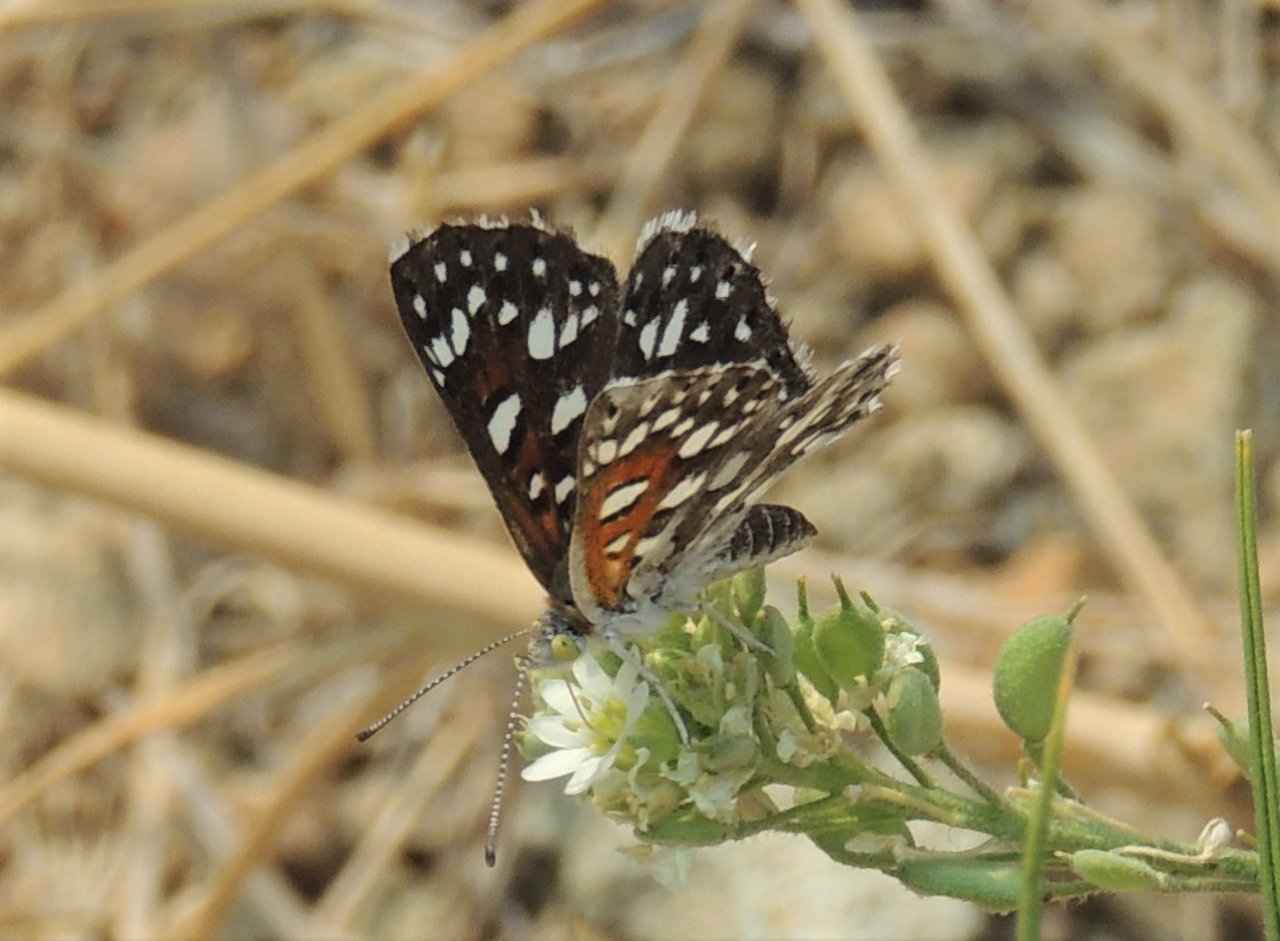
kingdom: Animalia
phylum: Arthropoda
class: Insecta
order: Lepidoptera
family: Riodinidae
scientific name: Riodinidae
